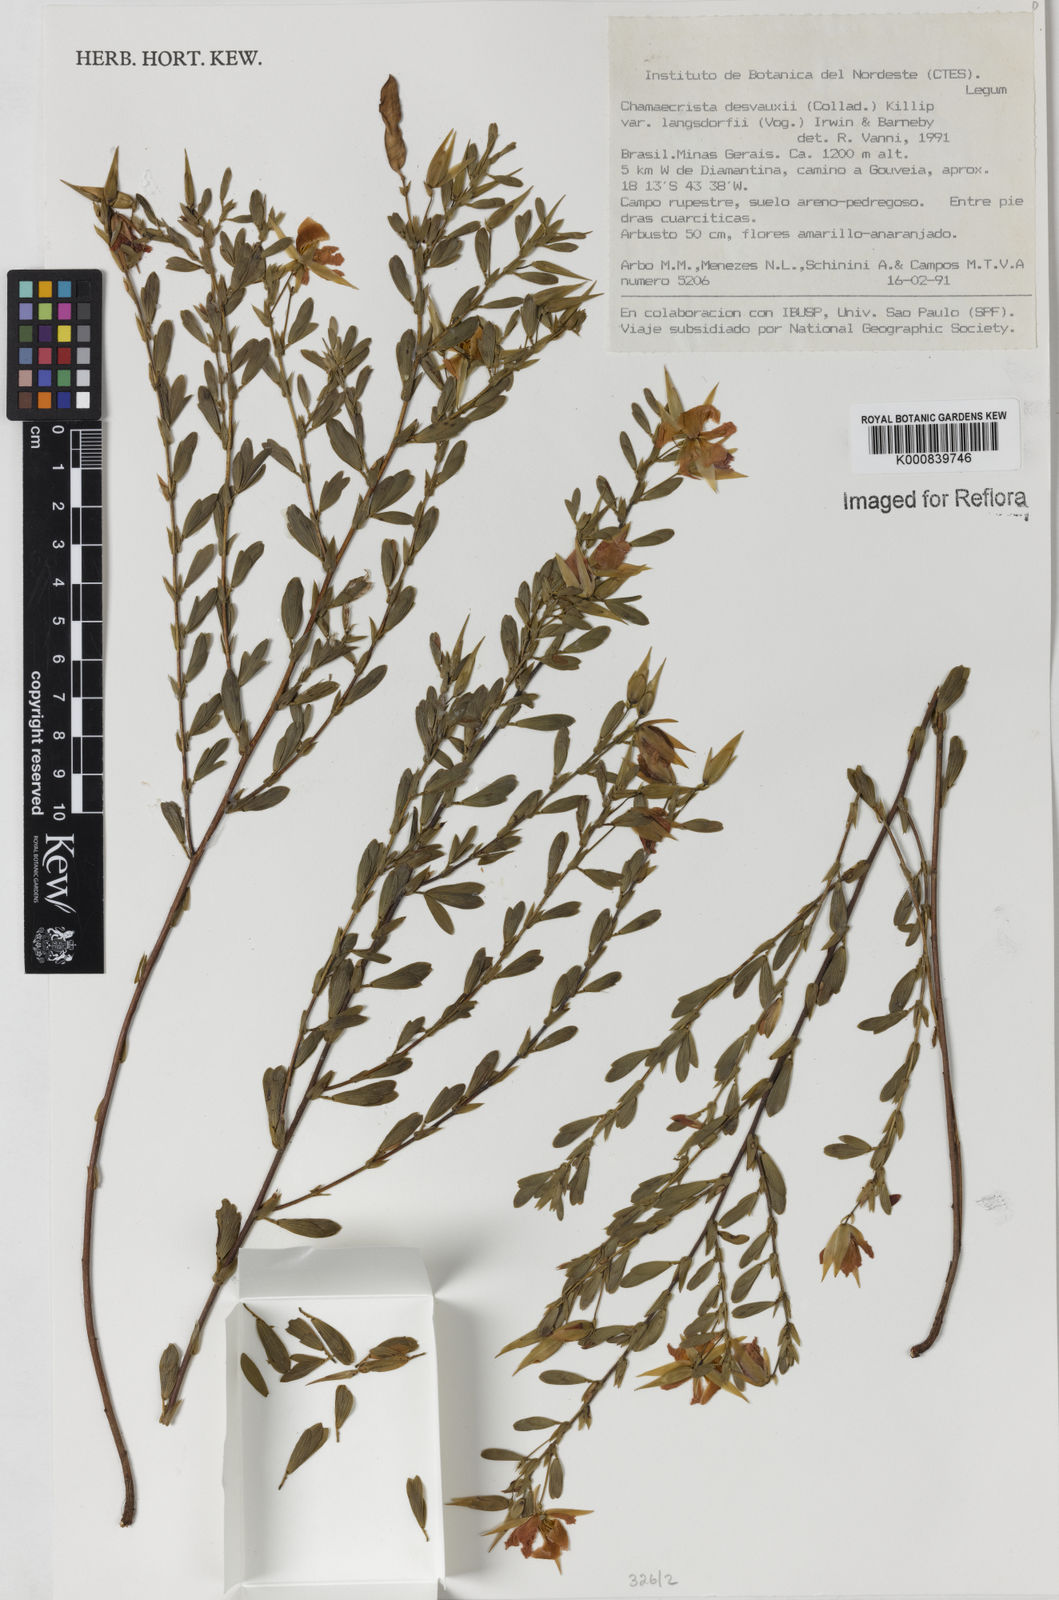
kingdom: Plantae
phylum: Tracheophyta
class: Magnoliopsida
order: Fabales
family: Fabaceae
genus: Chamaecrista
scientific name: Chamaecrista langsdorffii
